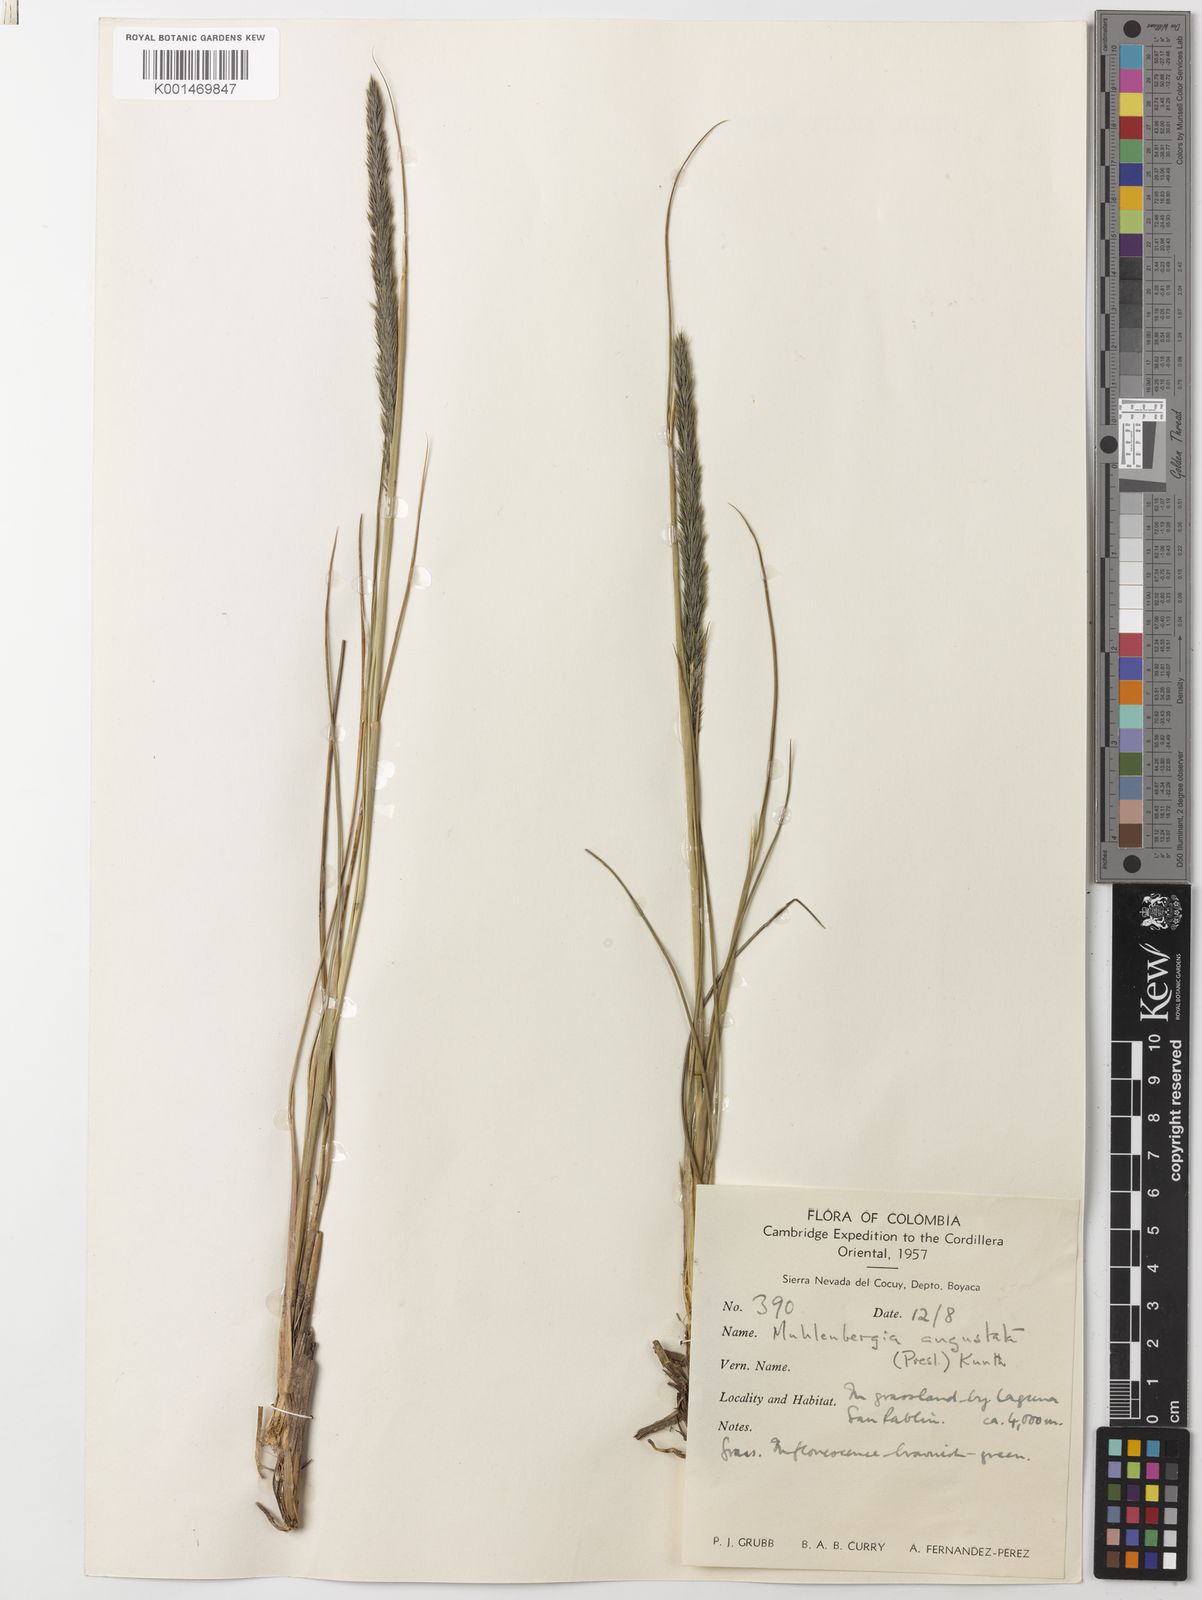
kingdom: Plantae
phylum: Tracheophyta
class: Liliopsida
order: Poales
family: Poaceae
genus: Muhlenbergia
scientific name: Muhlenbergia angustata
